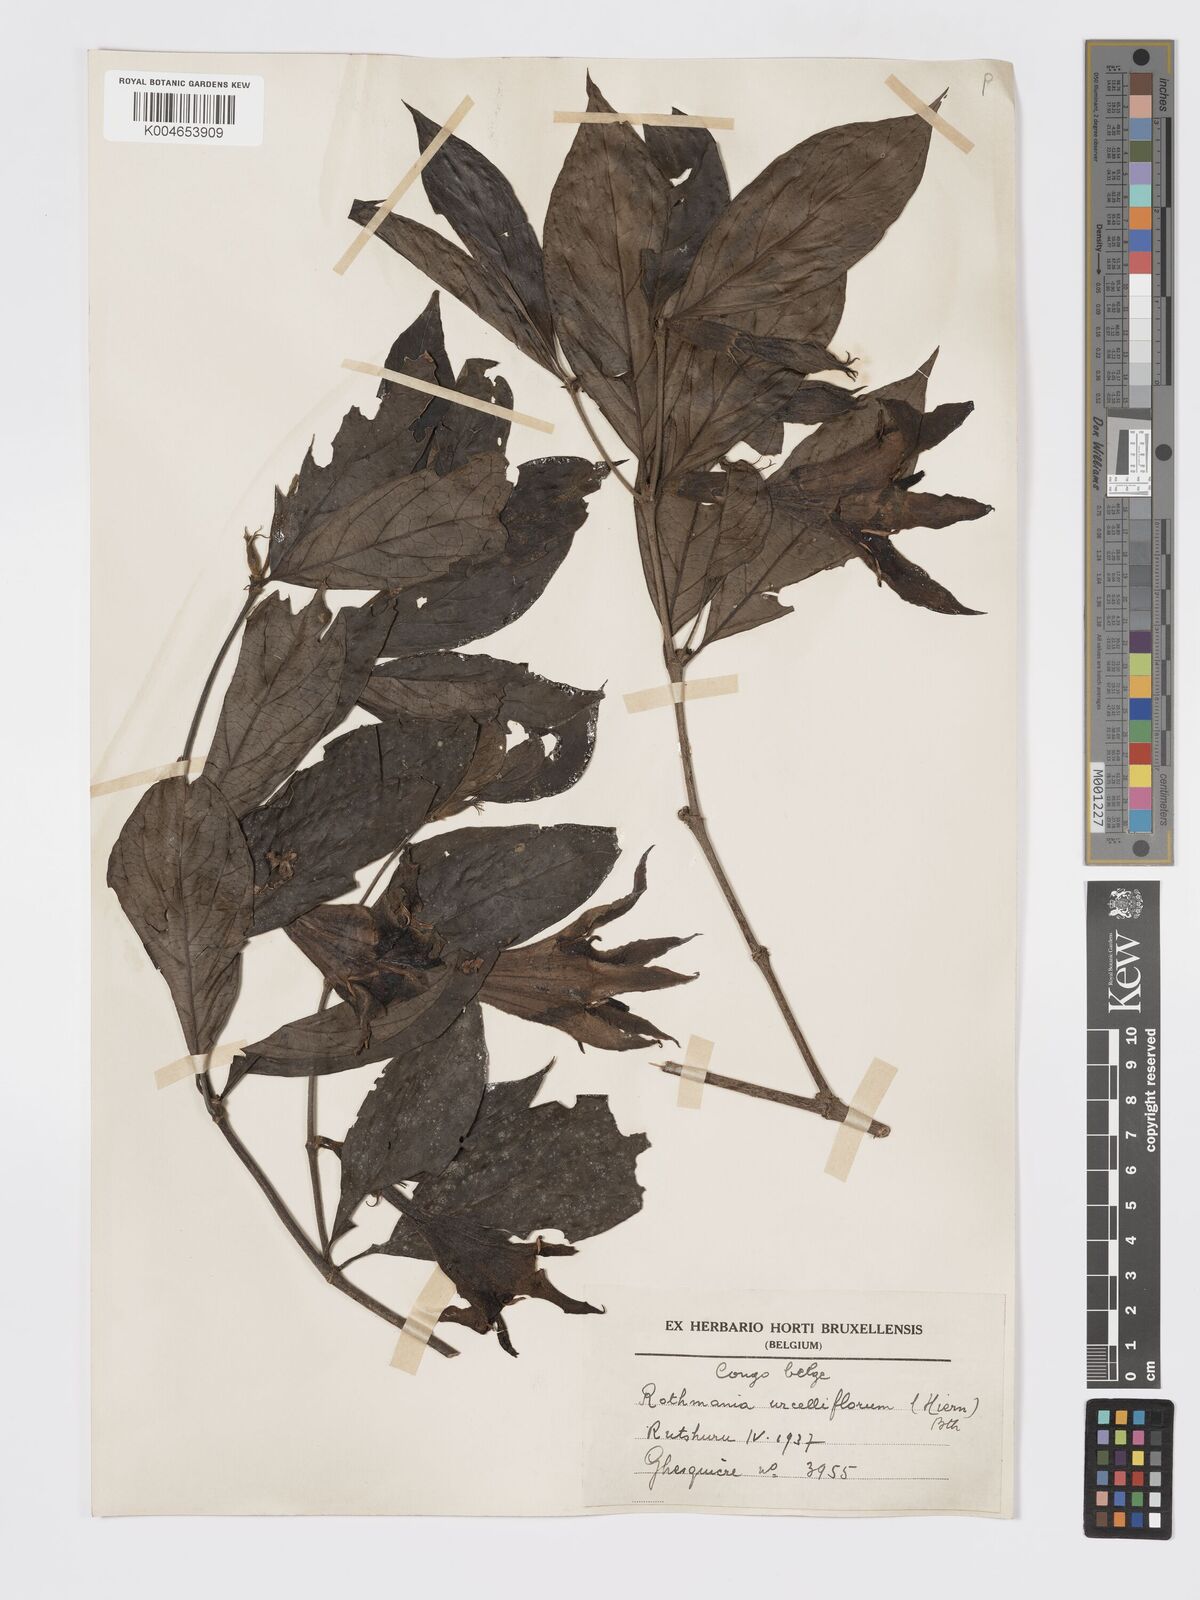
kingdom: Plantae
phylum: Tracheophyta
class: Magnoliopsida
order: Gentianales
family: Rubiaceae
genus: Rothmannia
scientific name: Rothmannia urcelliformis
